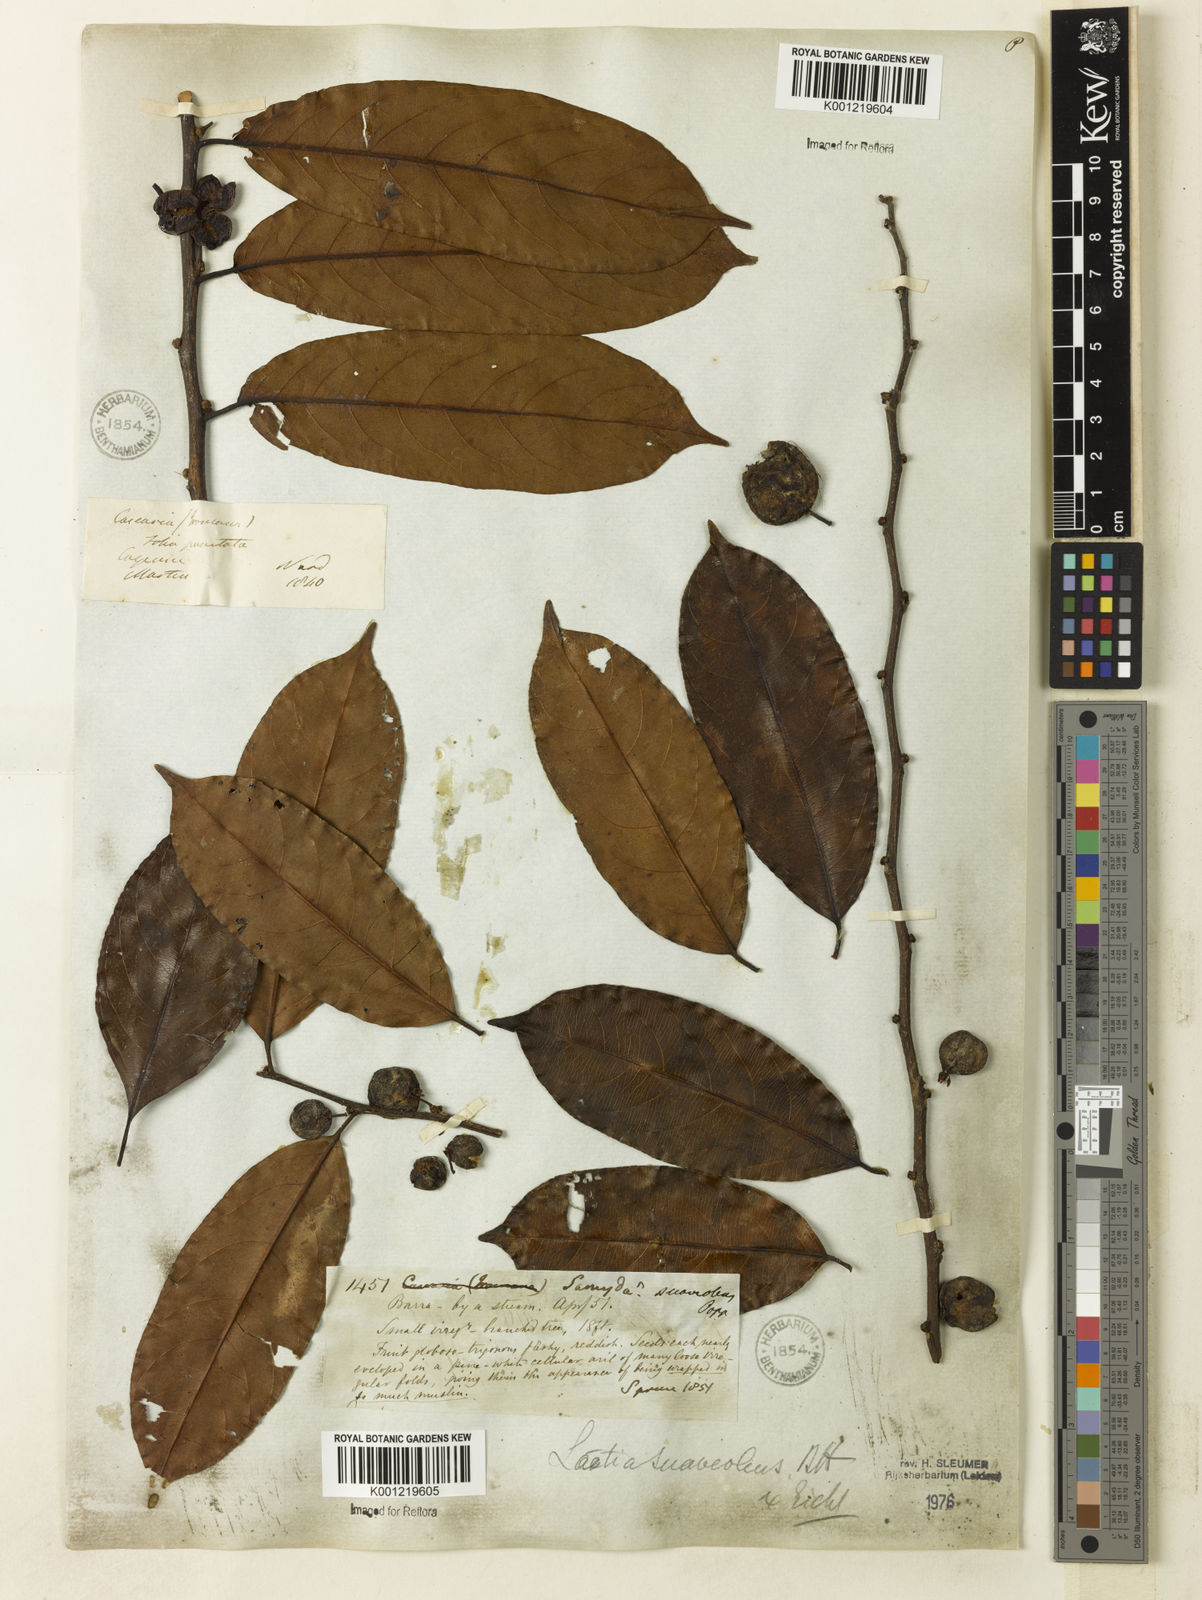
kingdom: Plantae
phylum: Tracheophyta
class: Magnoliopsida
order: Malpighiales
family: Salicaceae
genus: Casearia
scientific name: Casearia suaveolens
